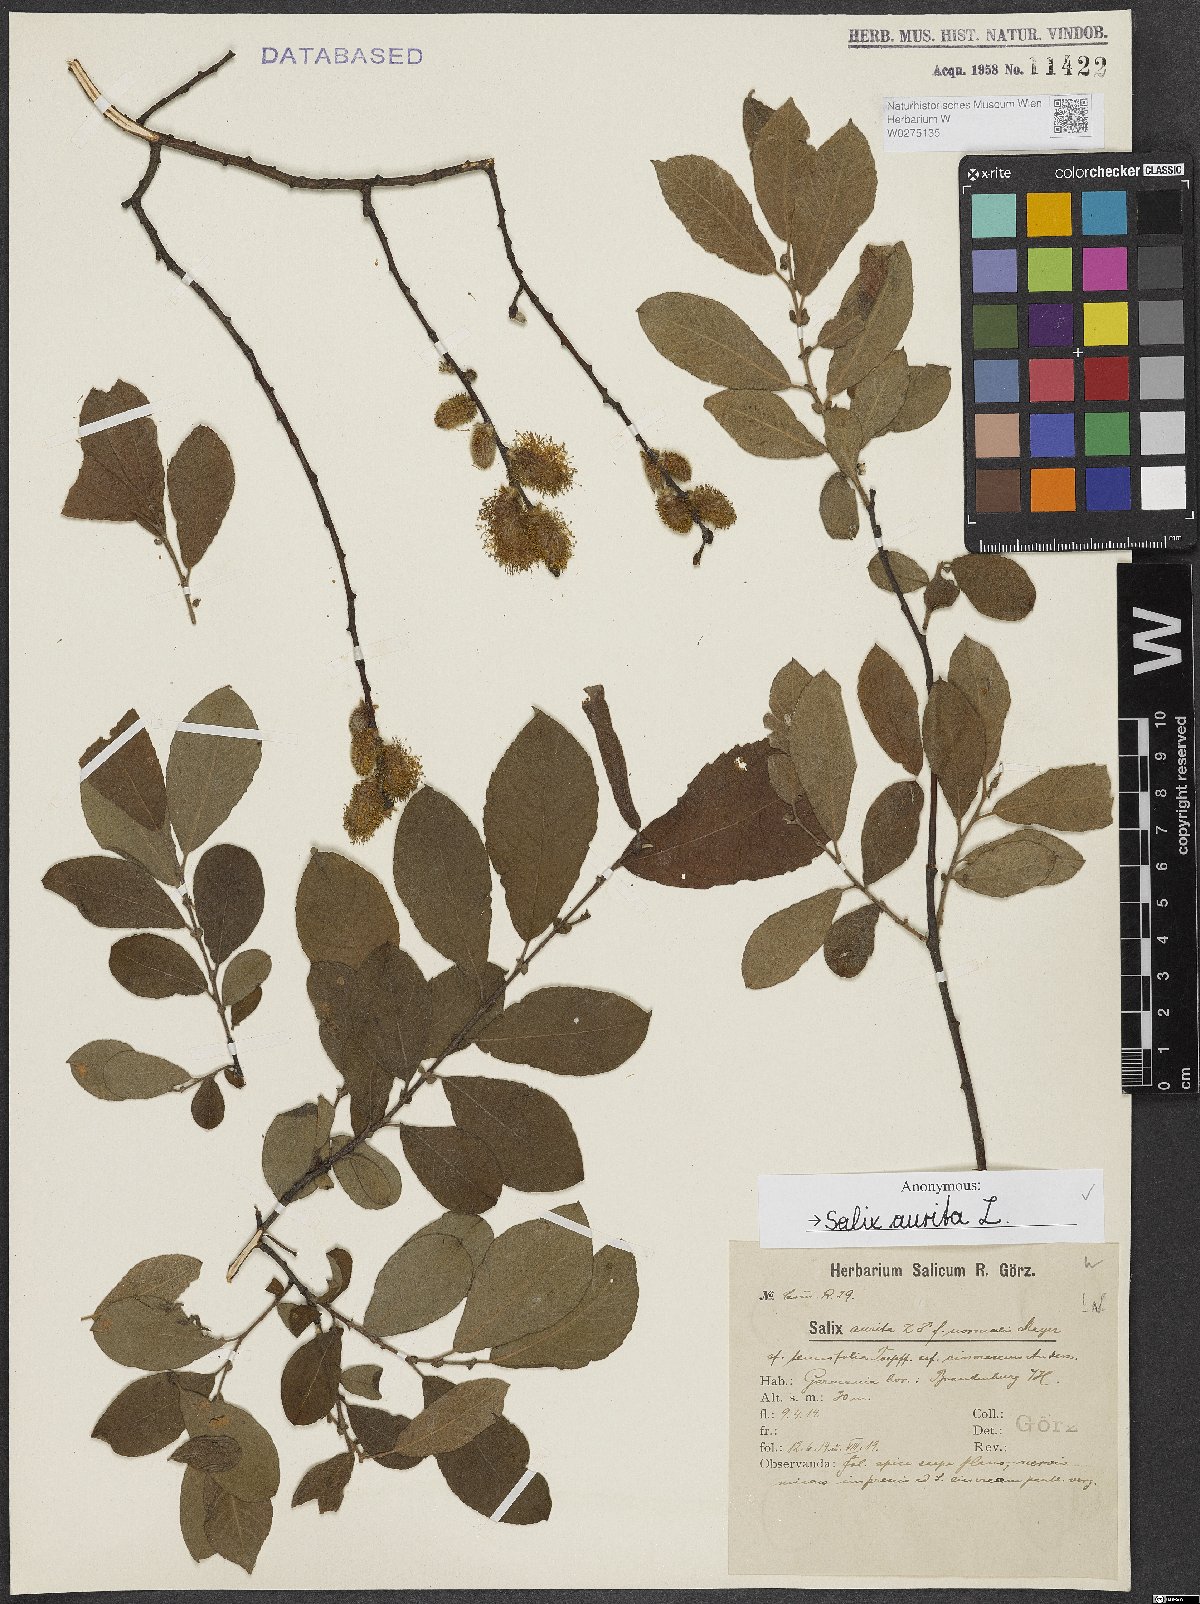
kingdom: Plantae
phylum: Tracheophyta
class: Magnoliopsida
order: Malpighiales
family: Salicaceae
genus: Salix
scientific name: Salix aurita
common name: Eared willow
